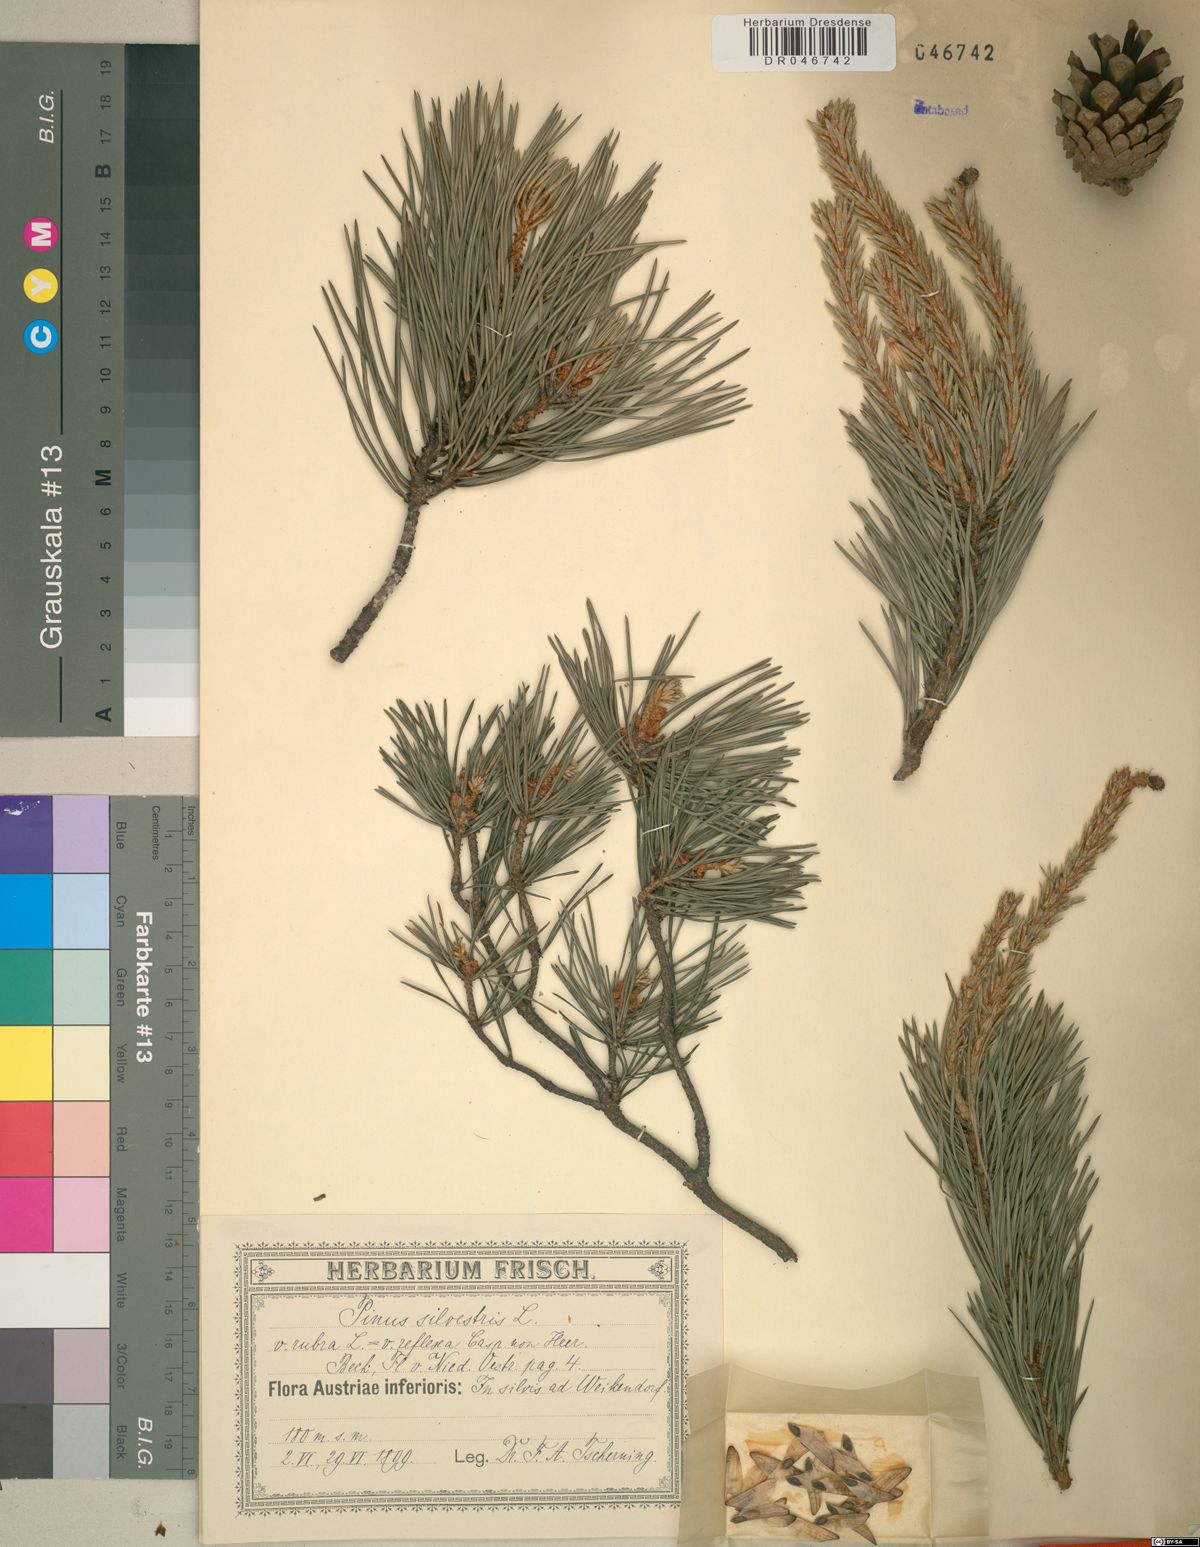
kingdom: Plantae
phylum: Tracheophyta
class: Pinopsida
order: Pinales
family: Pinaceae
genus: Pinus
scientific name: Pinus sylvestris
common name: Scots pine
